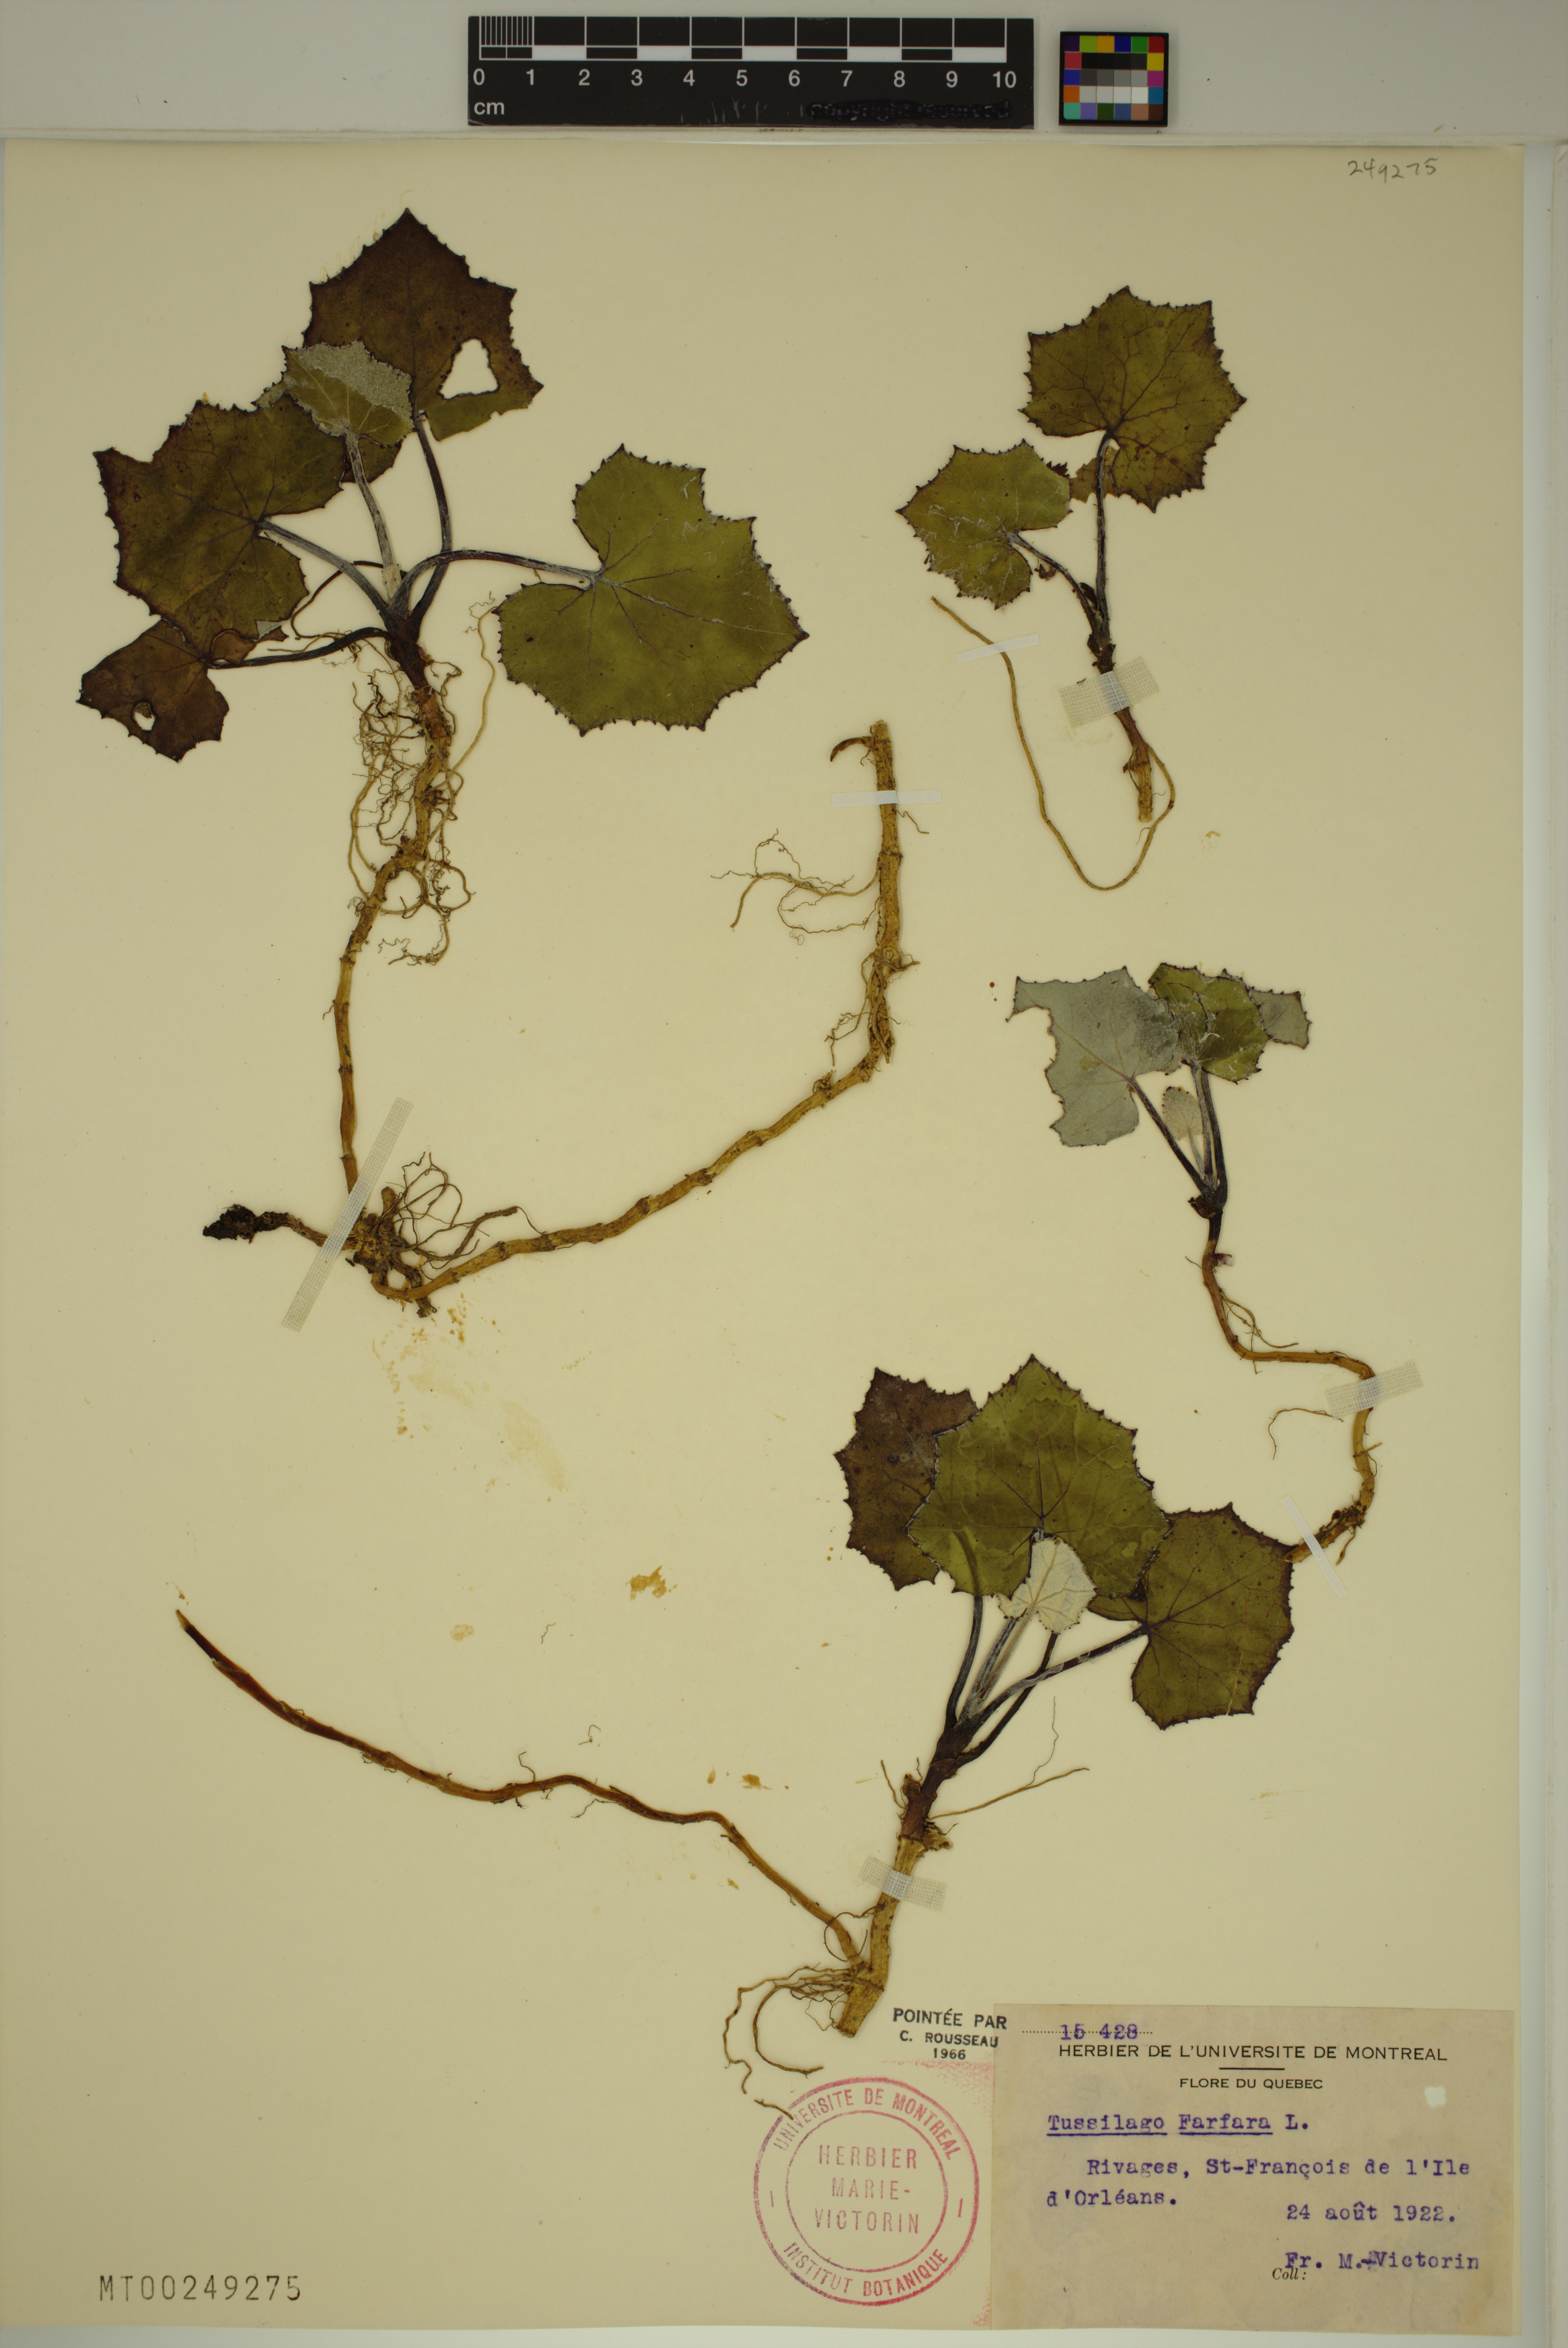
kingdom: Plantae
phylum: Tracheophyta
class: Magnoliopsida
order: Asterales
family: Asteraceae
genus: Tussilago
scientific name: Tussilago farfara
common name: Coltsfoot
